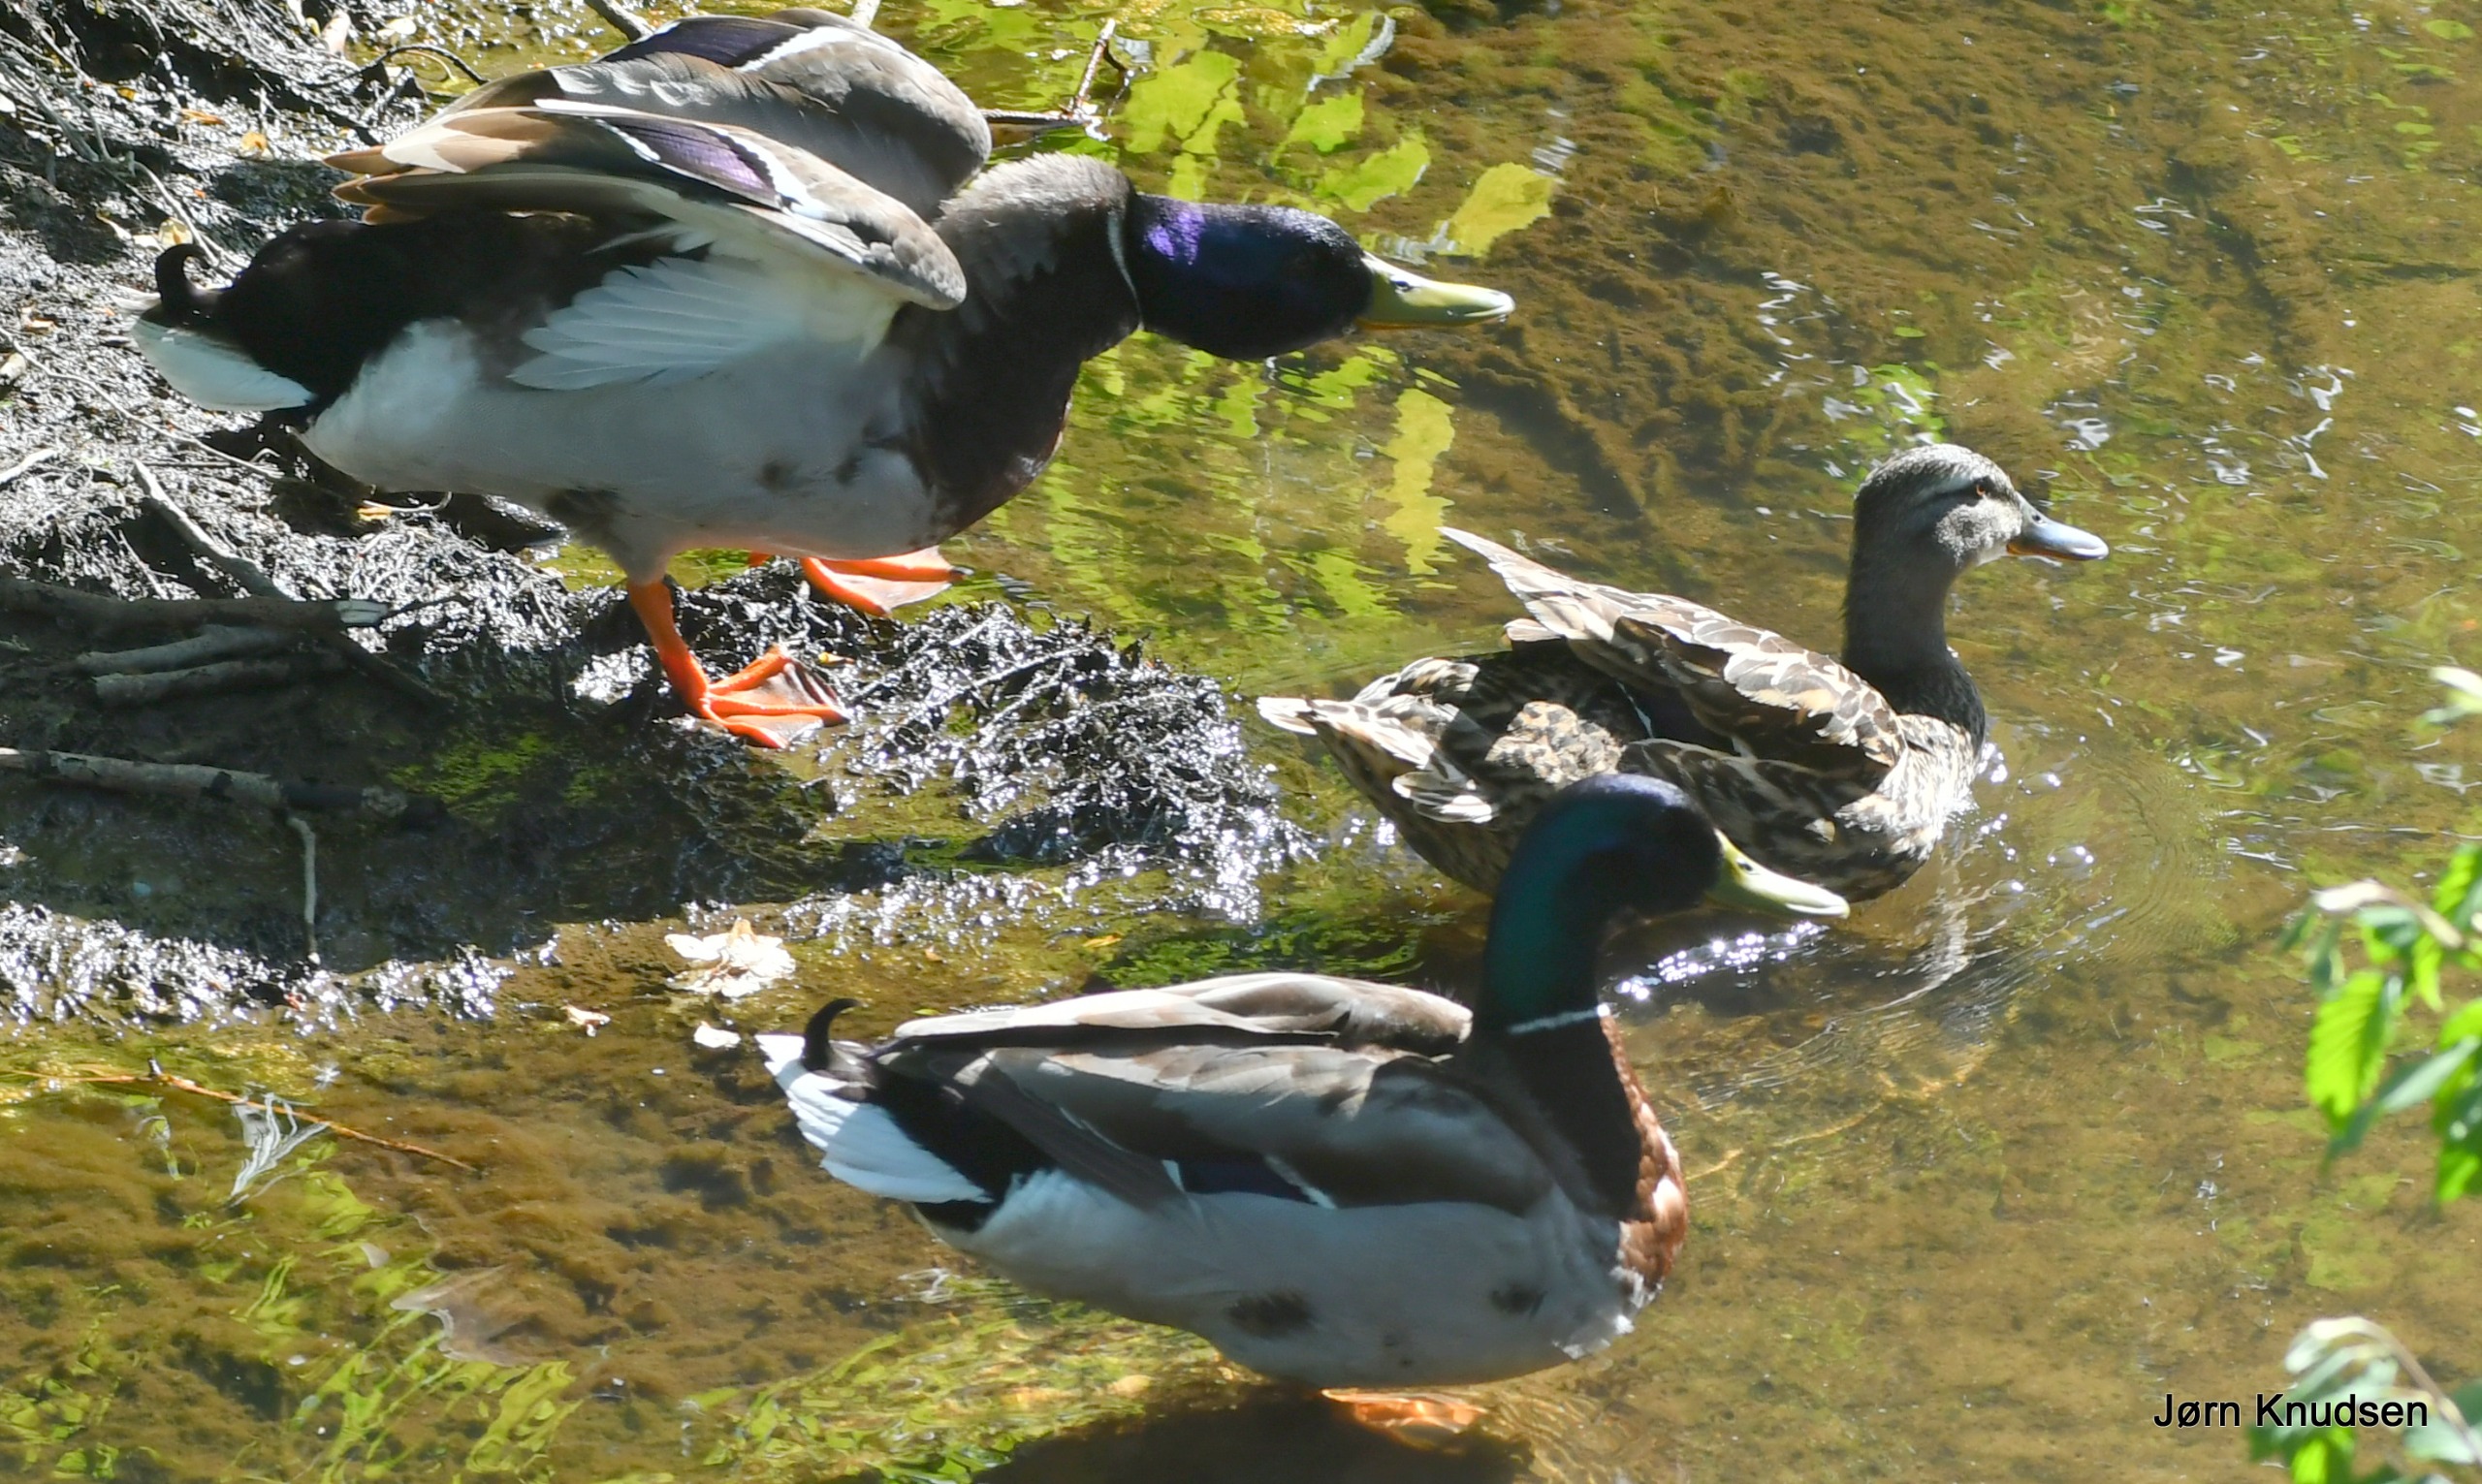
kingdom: Animalia
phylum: Chordata
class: Aves
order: Anseriformes
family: Anatidae
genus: Anas
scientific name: Anas platyrhynchos
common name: Gråand
